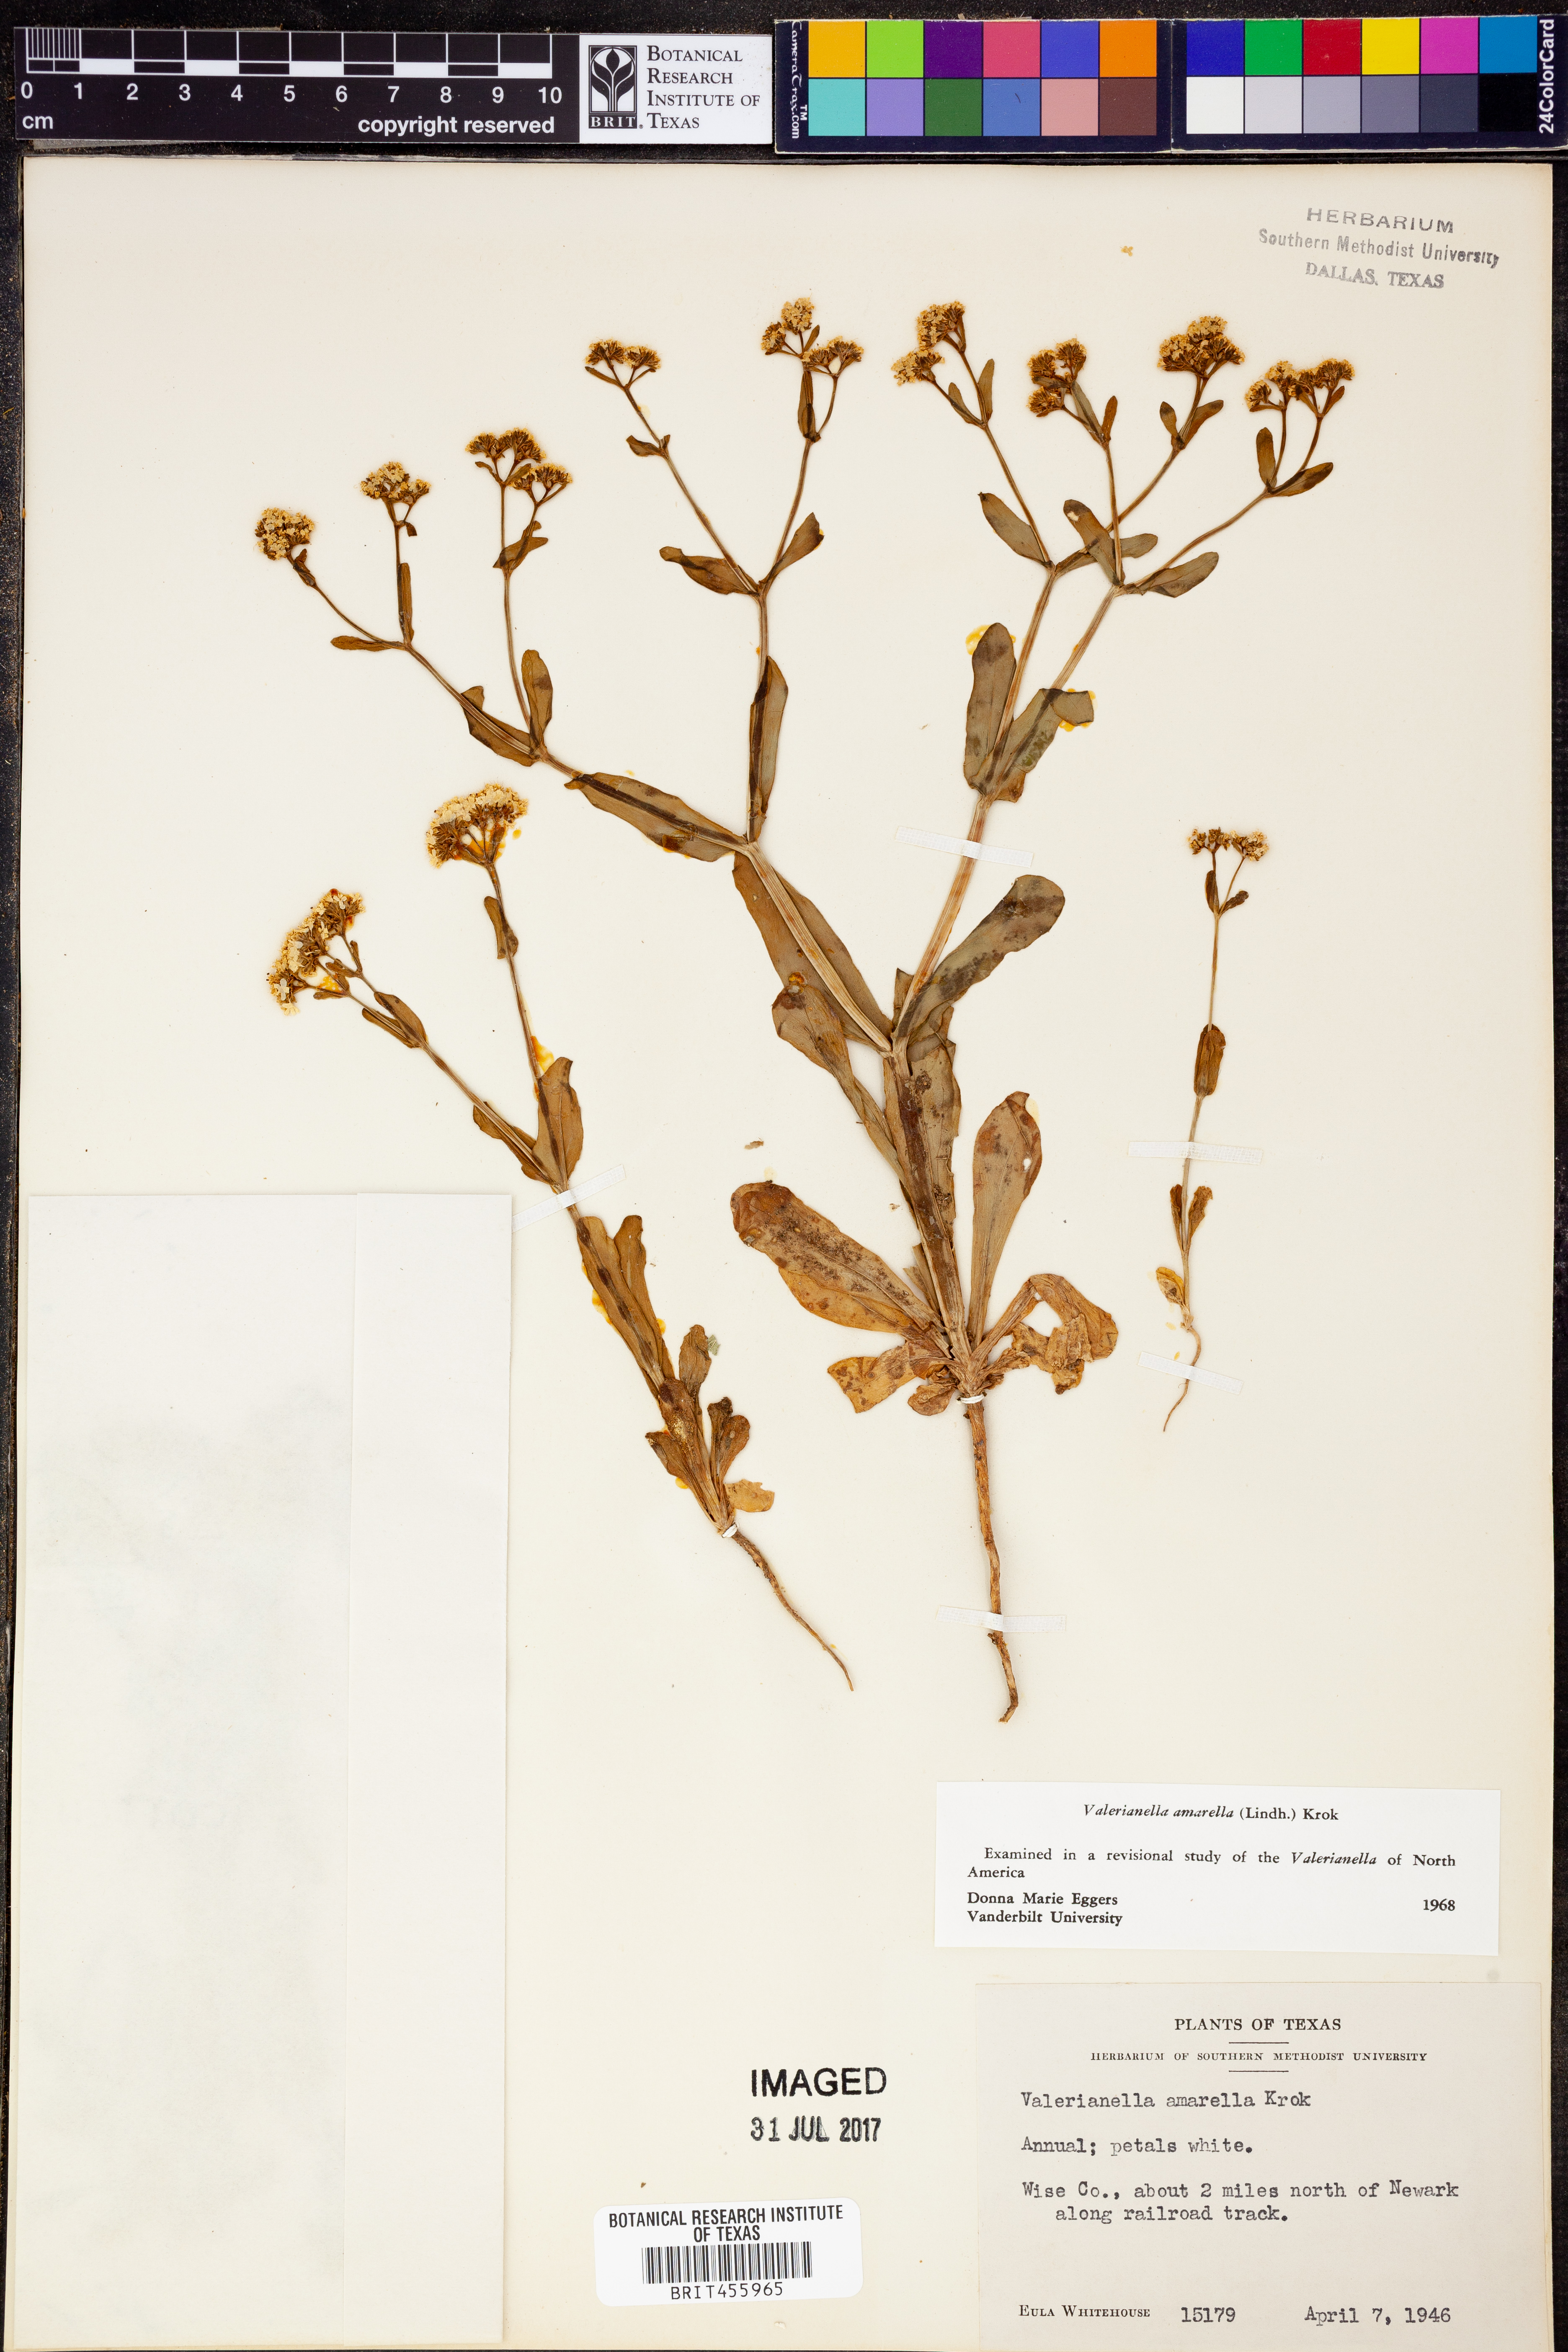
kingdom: Plantae
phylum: Tracheophyta
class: Magnoliopsida
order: Dipsacales
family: Caprifoliaceae
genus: Valerianella
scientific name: Valerianella amarella
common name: Hariy cornsalad
